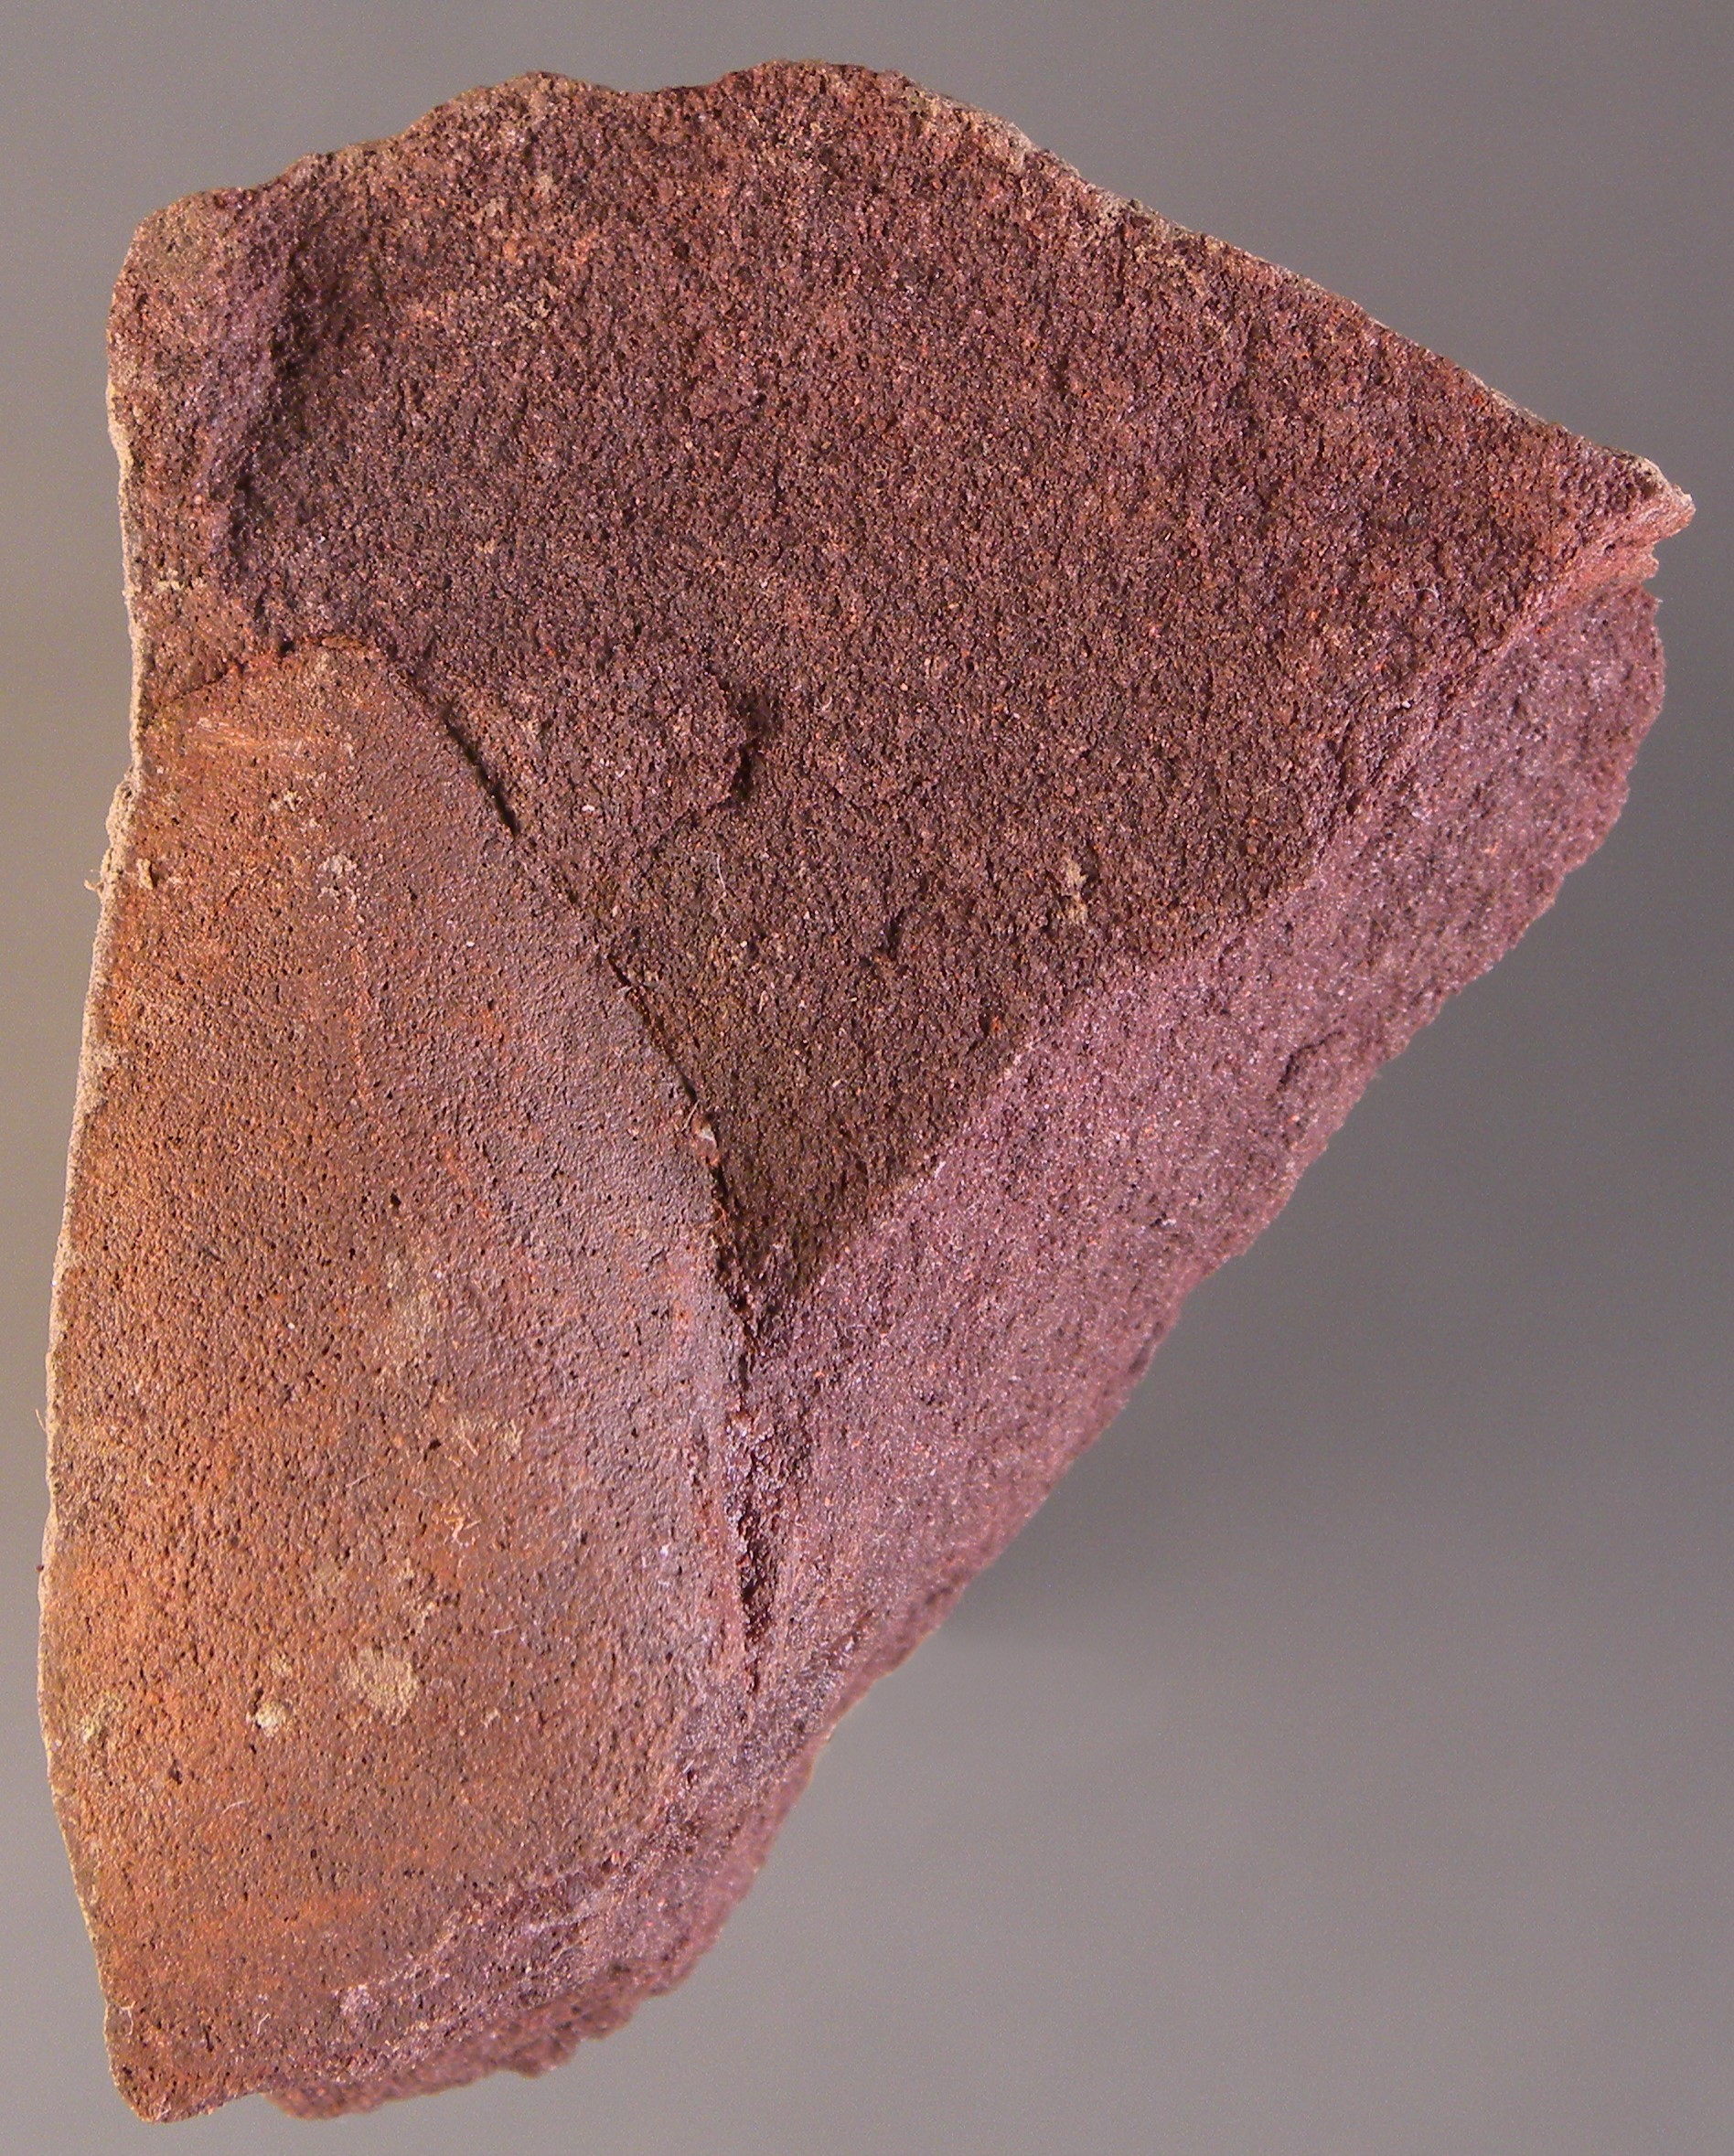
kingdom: Animalia
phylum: Mollusca
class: Bivalvia
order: Trigoniida
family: Eoschizodidae
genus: Eoschizodus
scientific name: Eoschizodus
